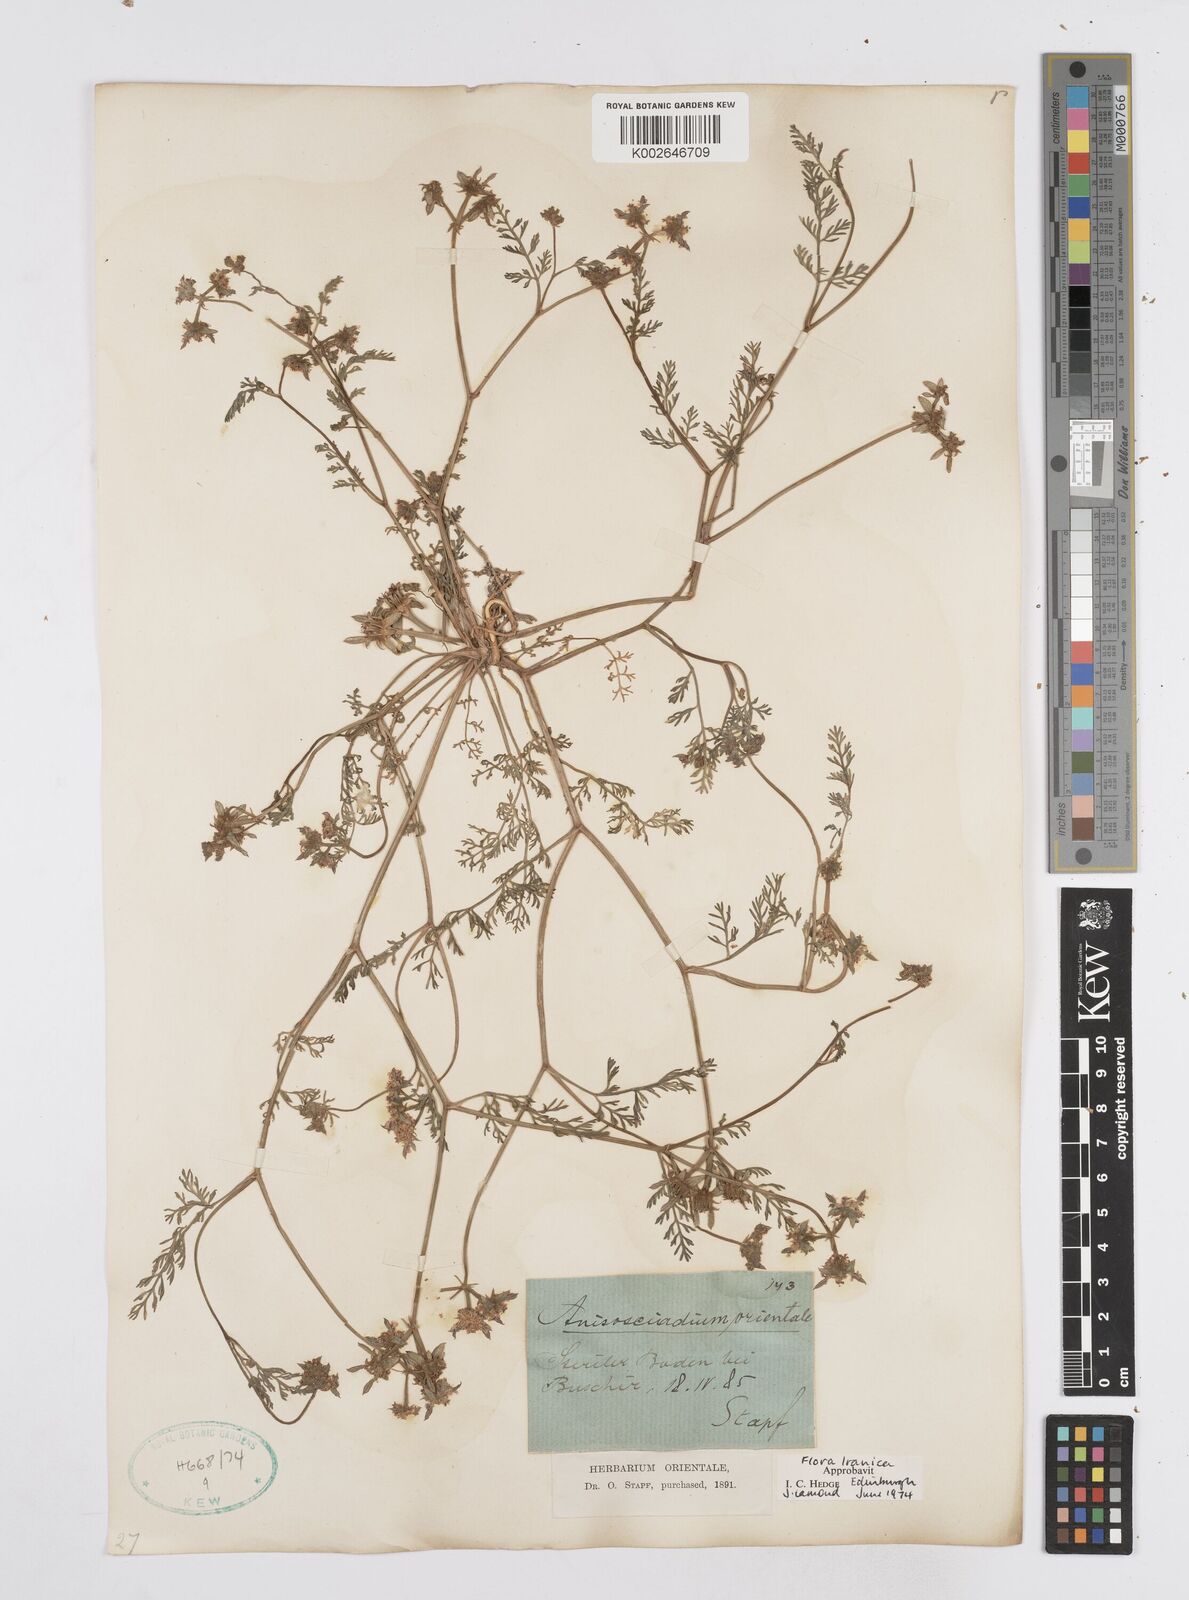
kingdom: Plantae
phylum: Tracheophyta
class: Magnoliopsida
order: Apiales
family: Apiaceae
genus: Anisosciadium
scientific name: Anisosciadium orientale
